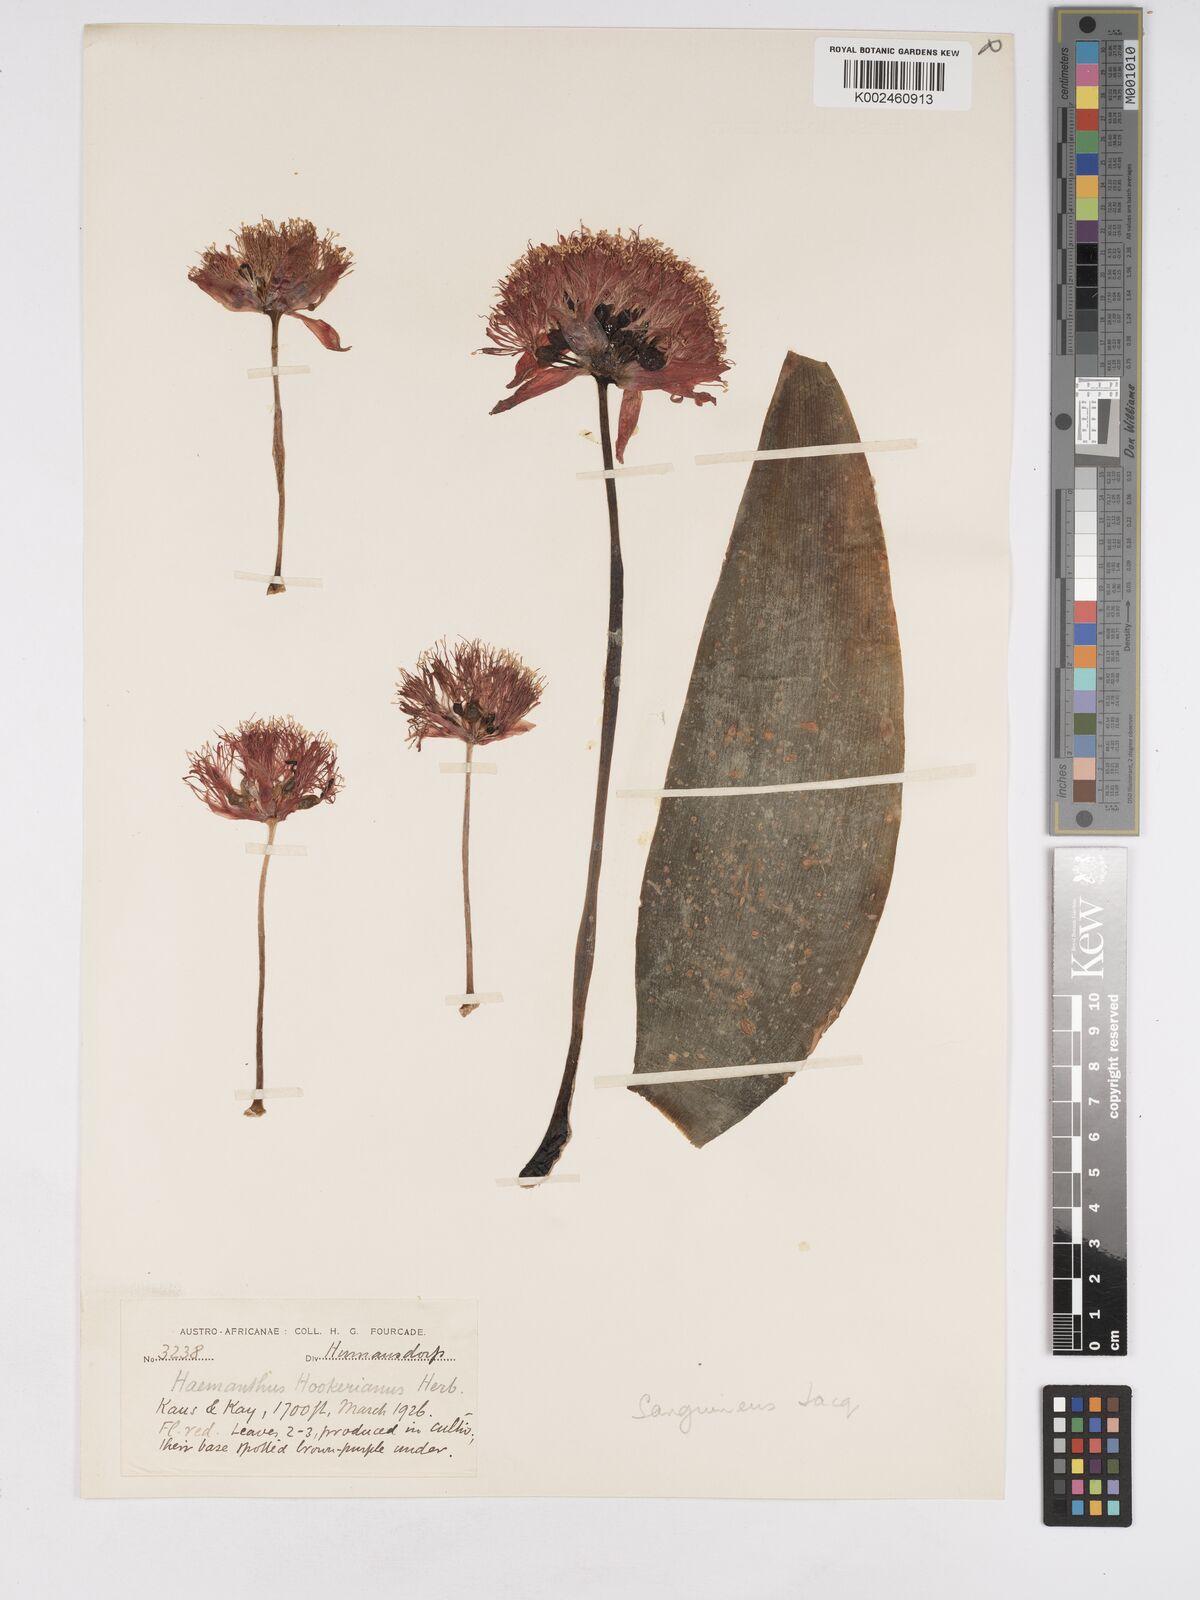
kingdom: Plantae
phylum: Tracheophyta
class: Liliopsida
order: Asparagales
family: Amaryllidaceae
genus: Haemanthus
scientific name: Haemanthus sanguineus
